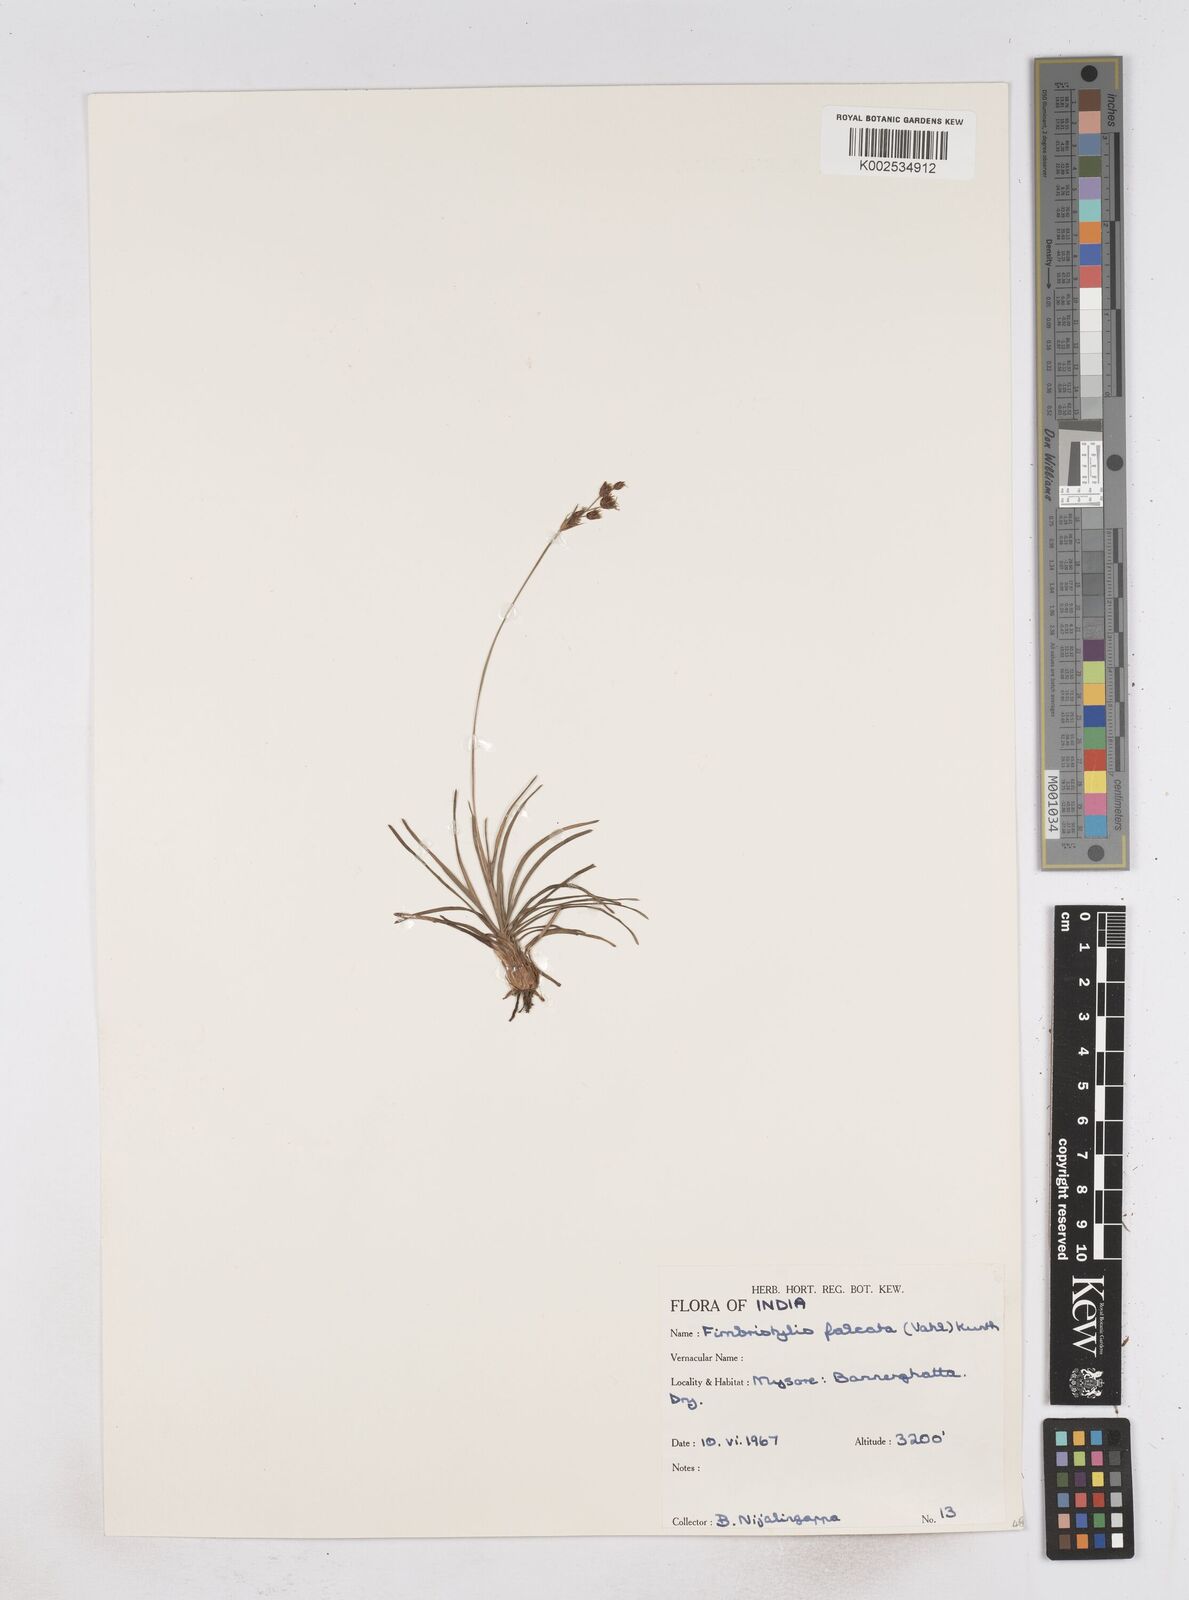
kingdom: Plantae
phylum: Tracheophyta
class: Liliopsida
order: Poales
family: Cyperaceae
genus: Fimbristylis
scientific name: Fimbristylis falcata
